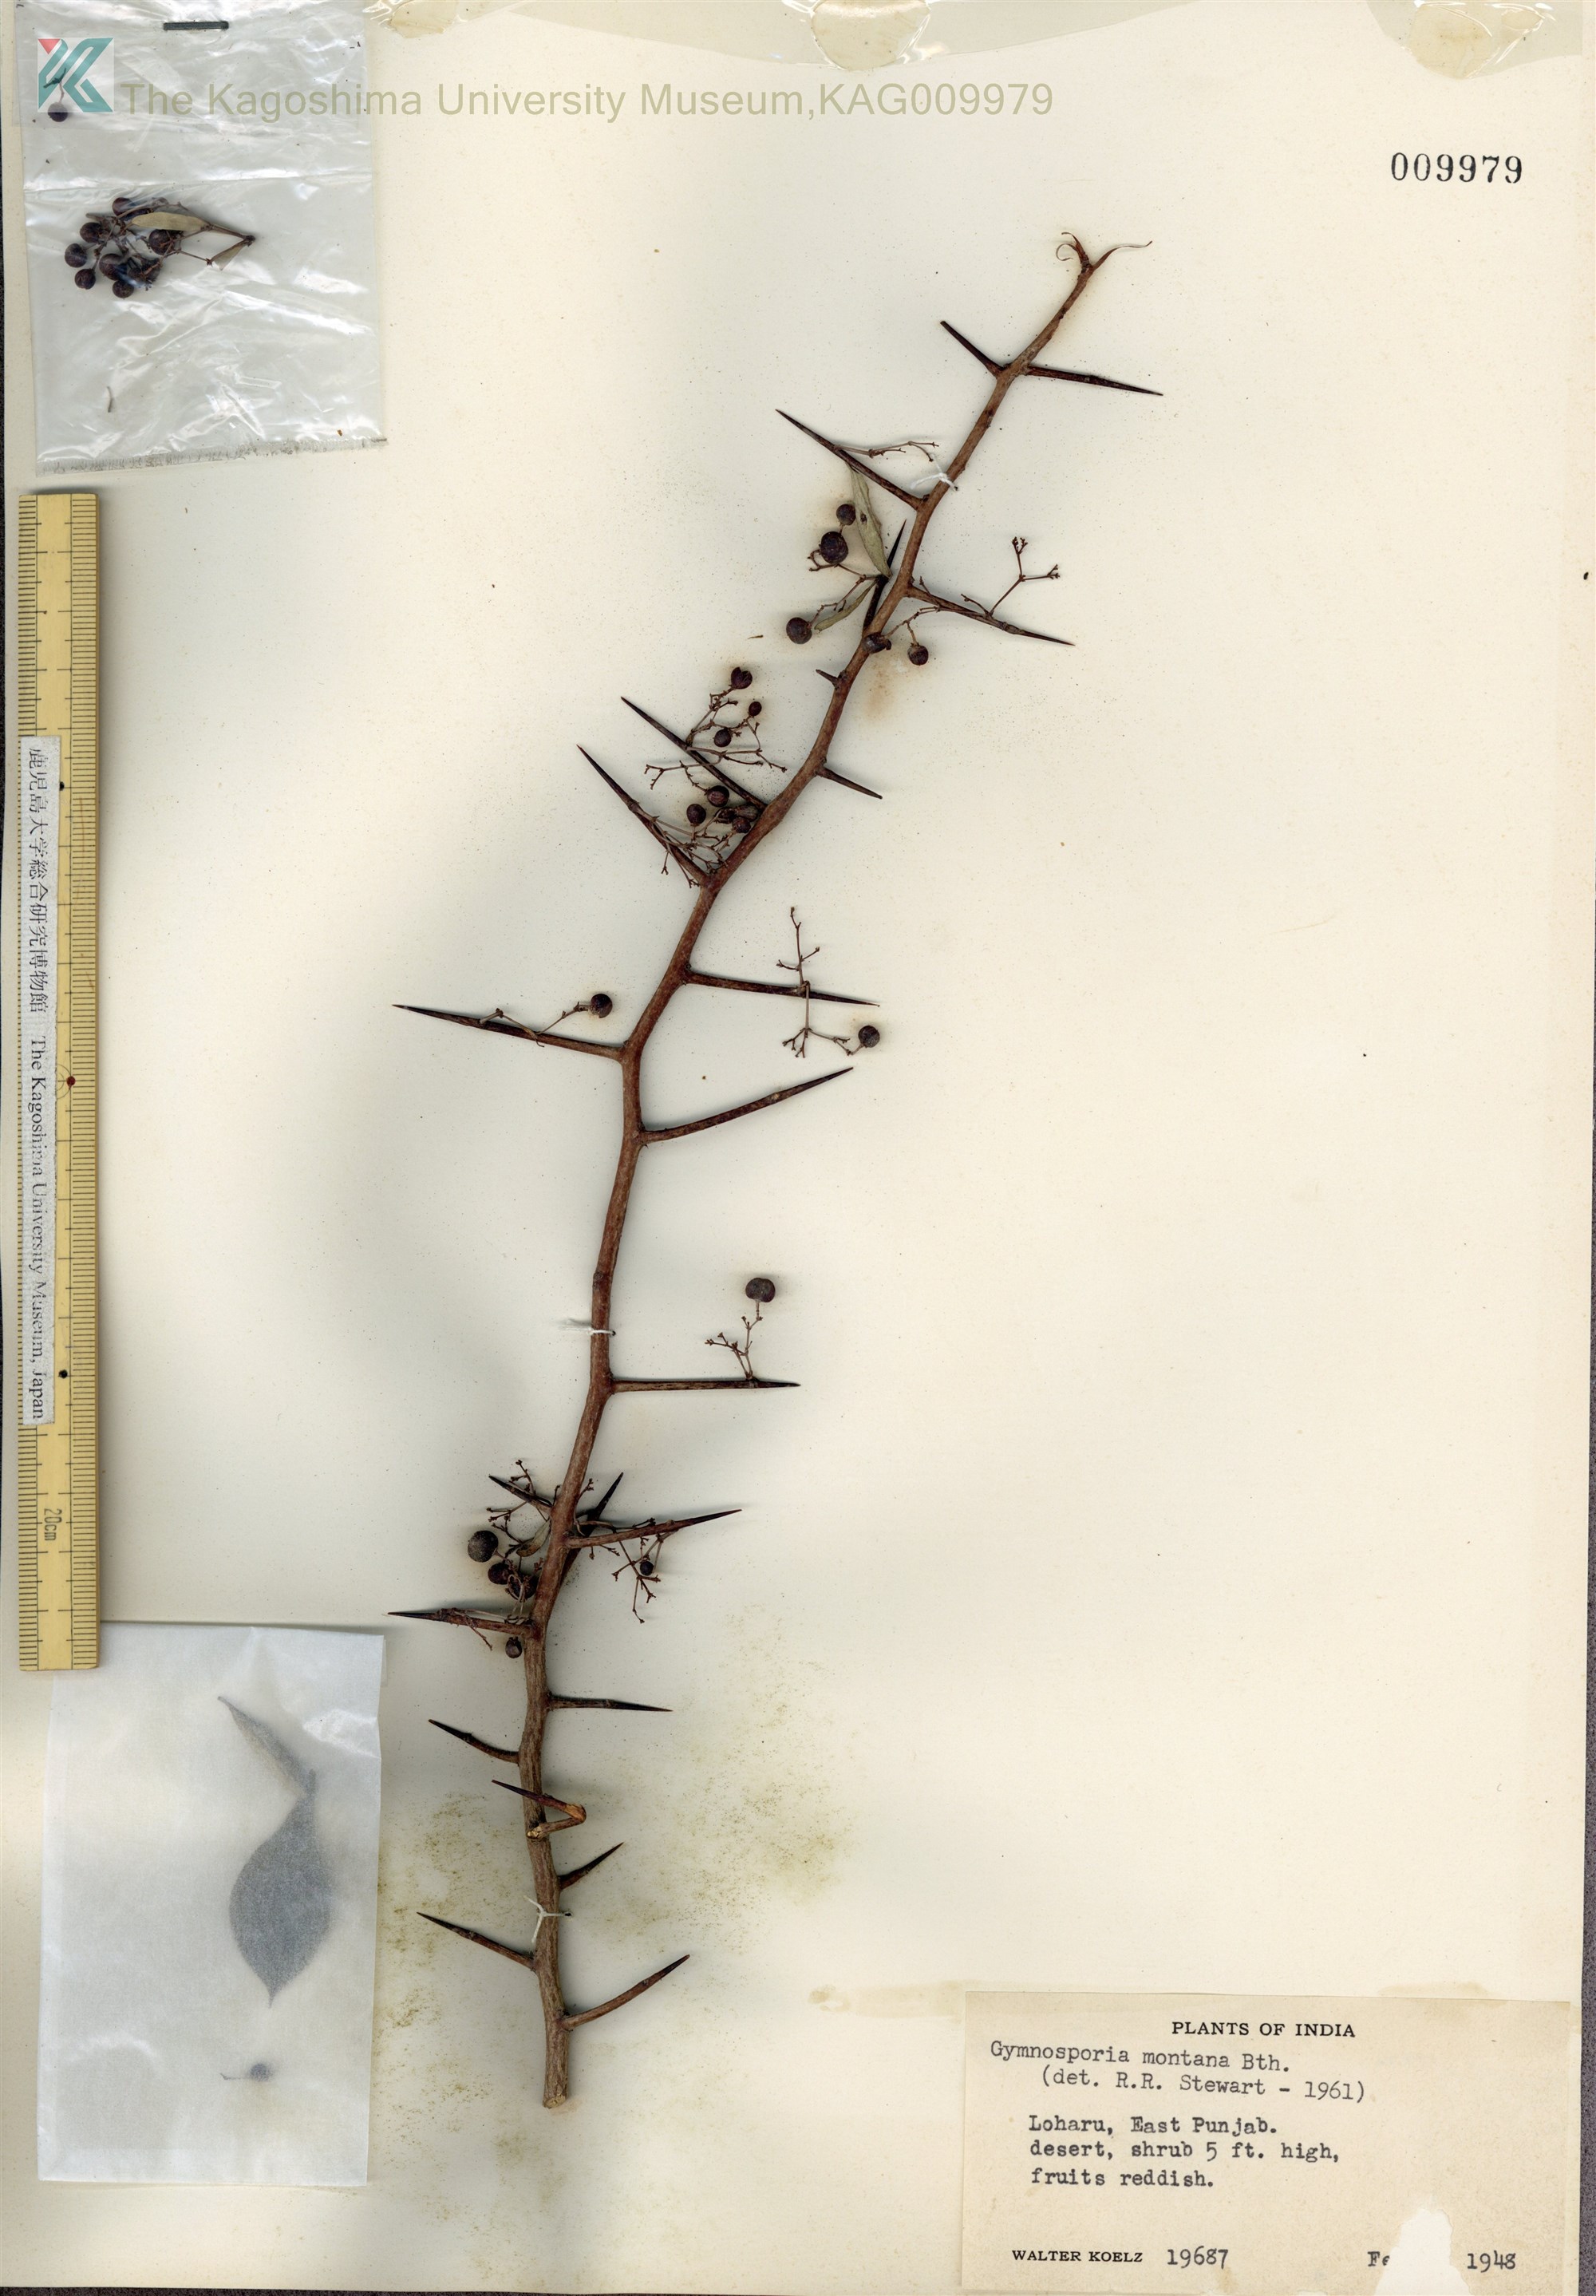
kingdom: Plantae
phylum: Tracheophyta
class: Magnoliopsida
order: Celastrales
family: Celastraceae
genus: Gymnosporia
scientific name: Gymnosporia senegalensis
